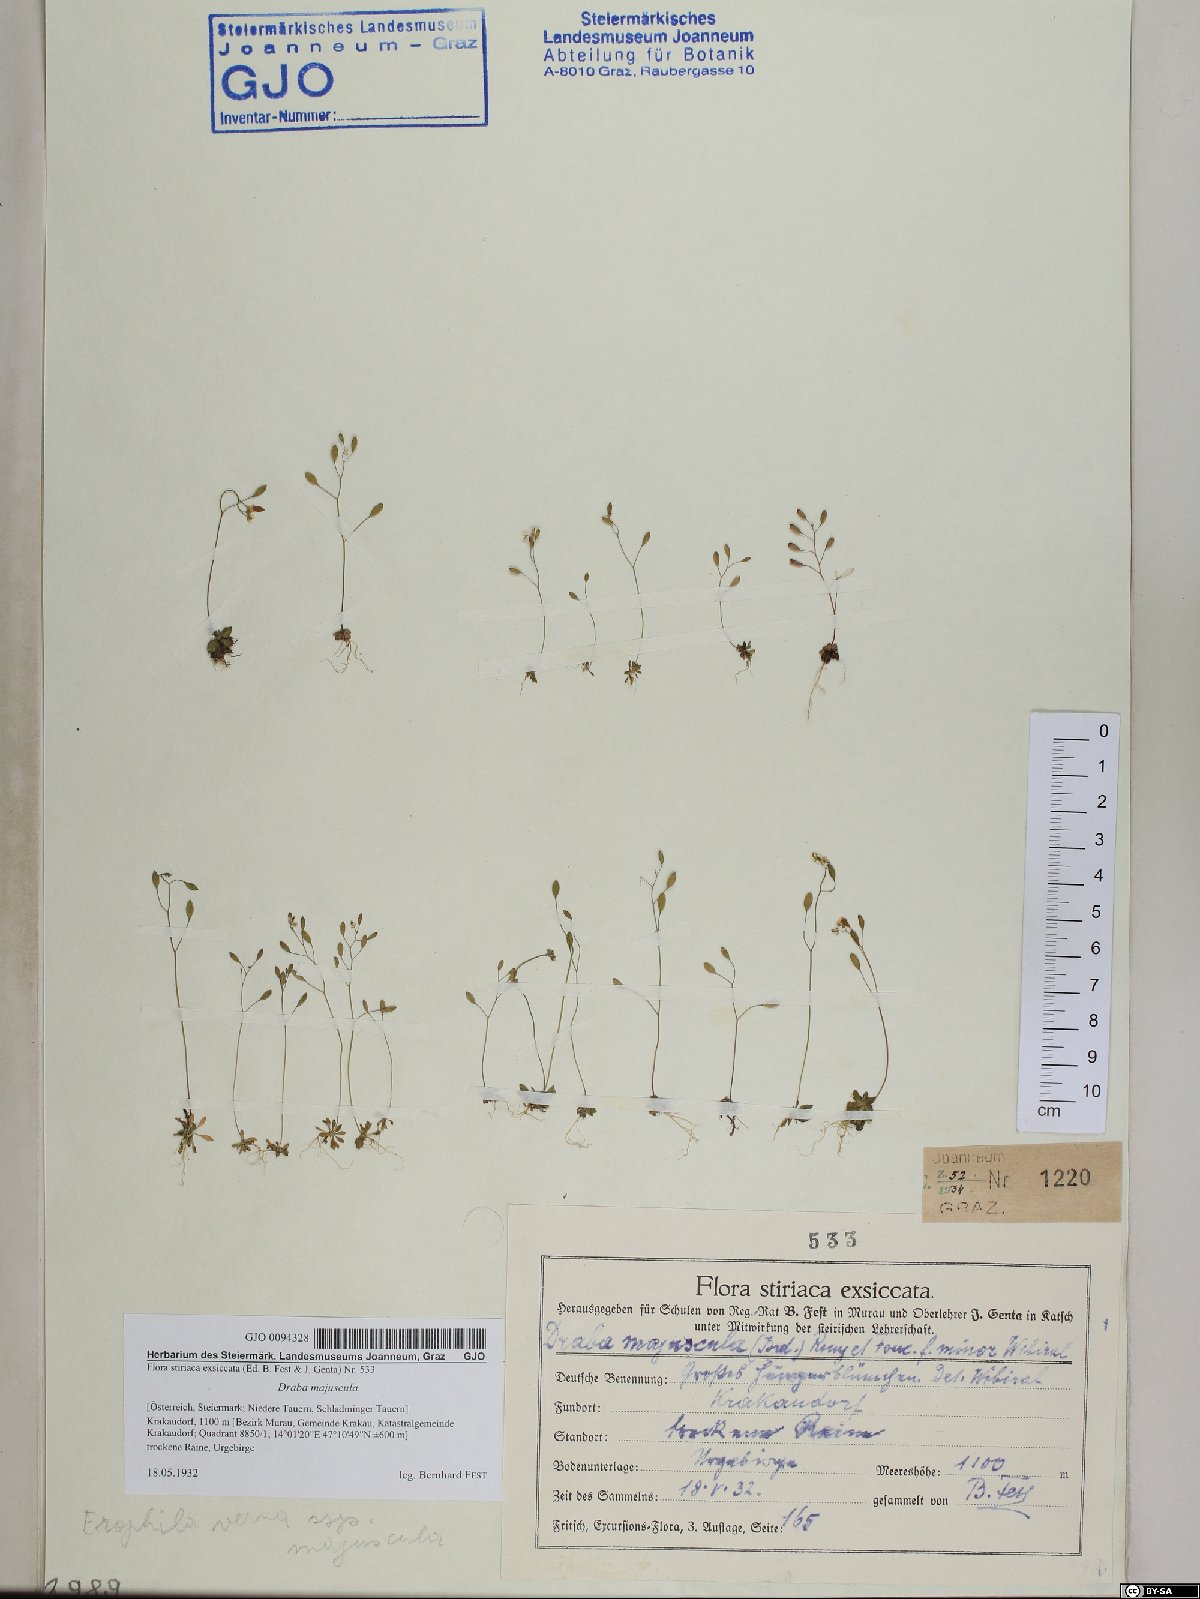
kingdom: Plantae
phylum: Tracheophyta
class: Magnoliopsida
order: Brassicales
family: Brassicaceae
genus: Draba
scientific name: Draba verna
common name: Spring draba
